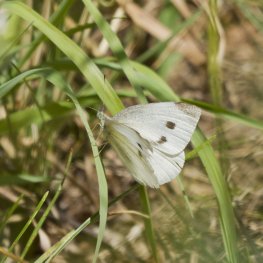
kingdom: Animalia
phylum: Arthropoda
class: Insecta
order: Lepidoptera
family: Pieridae
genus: Pieris
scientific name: Pieris rapae
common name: Cabbage White
